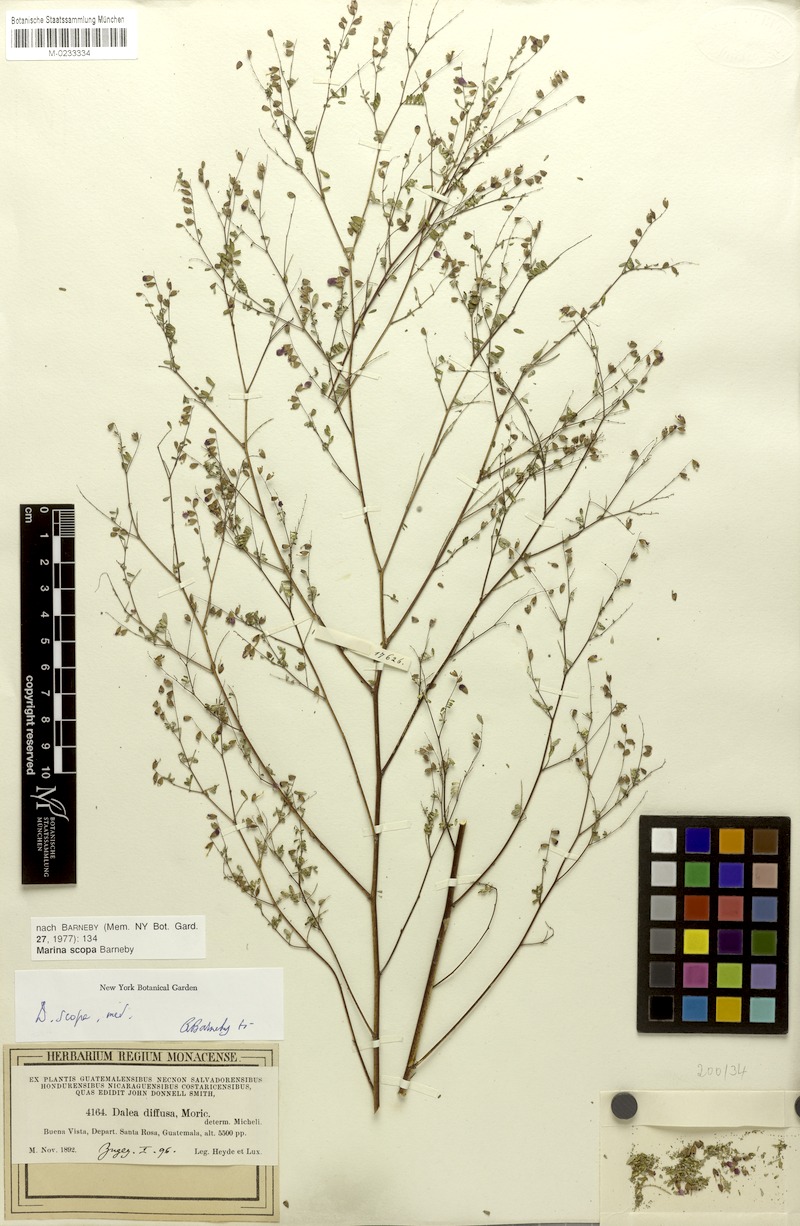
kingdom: Plantae
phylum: Tracheophyta
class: Magnoliopsida
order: Fabales
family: Fabaceae
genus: Marina
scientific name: Marina scopa
